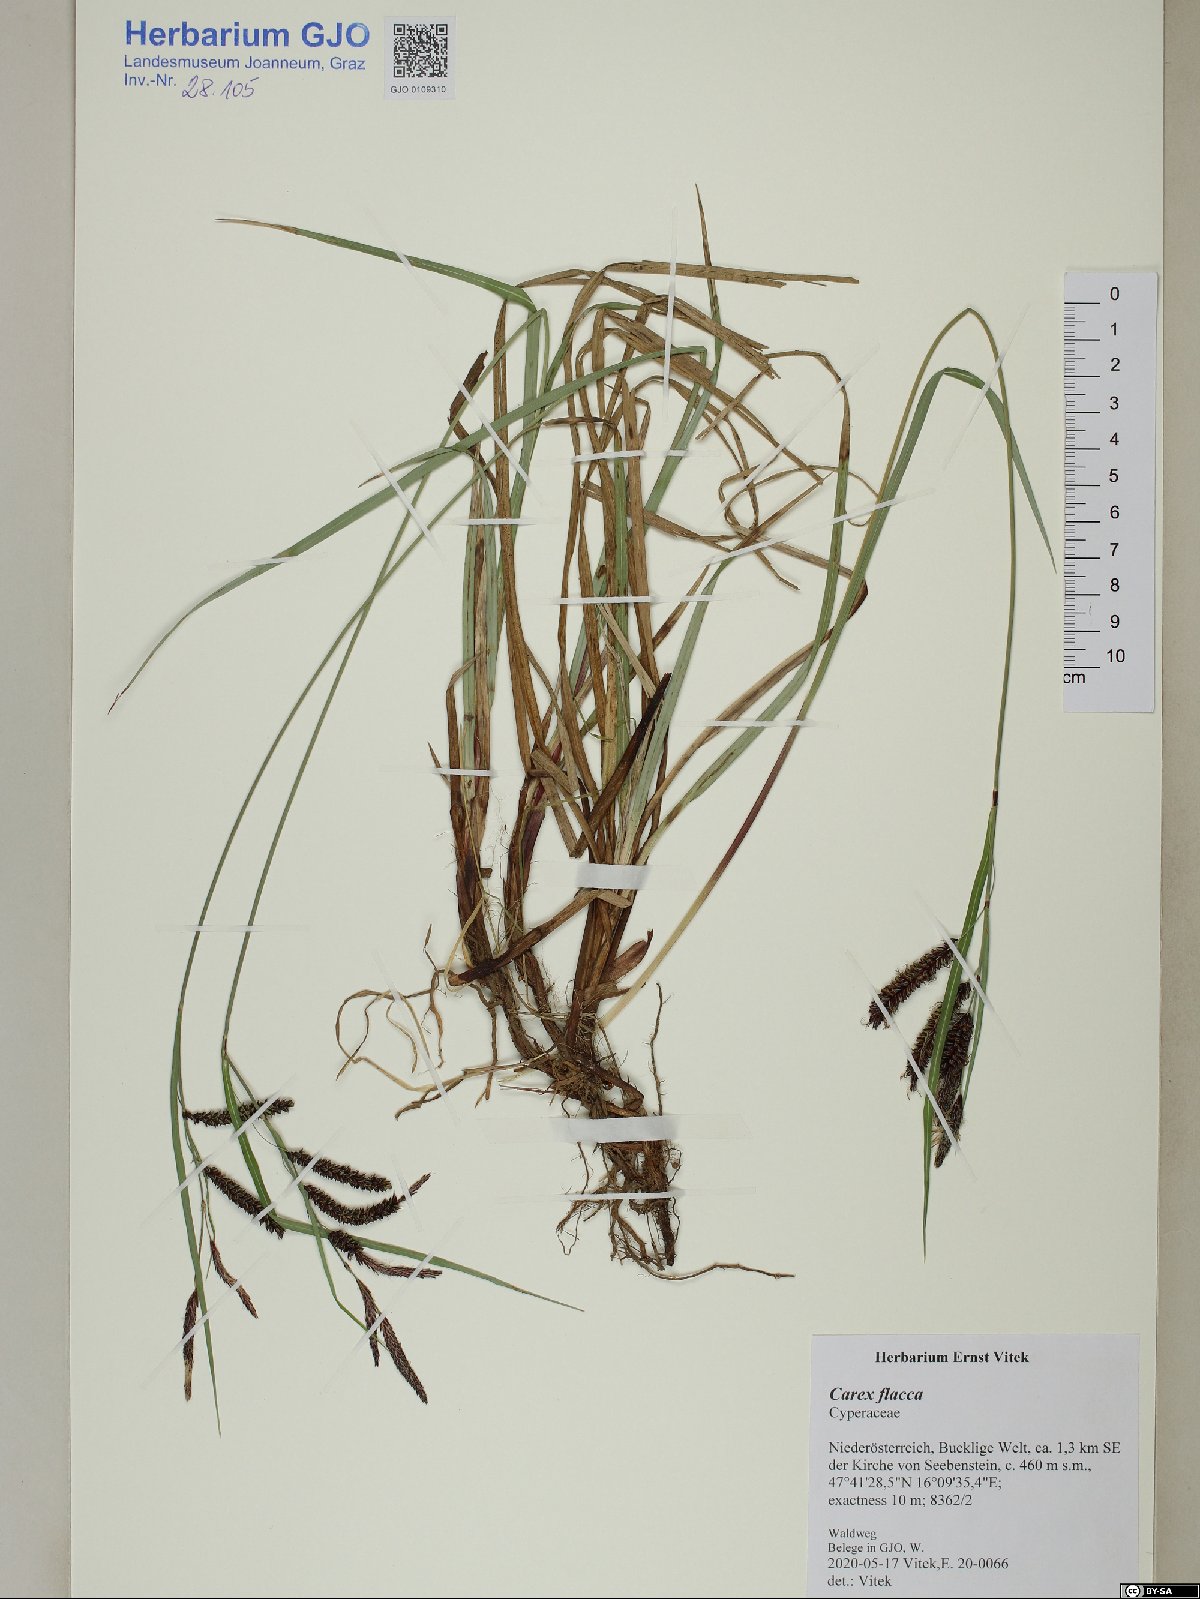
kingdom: Plantae
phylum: Tracheophyta
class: Liliopsida
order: Poales
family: Poaceae
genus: Koeleria
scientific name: Koeleria lasiorhachis
